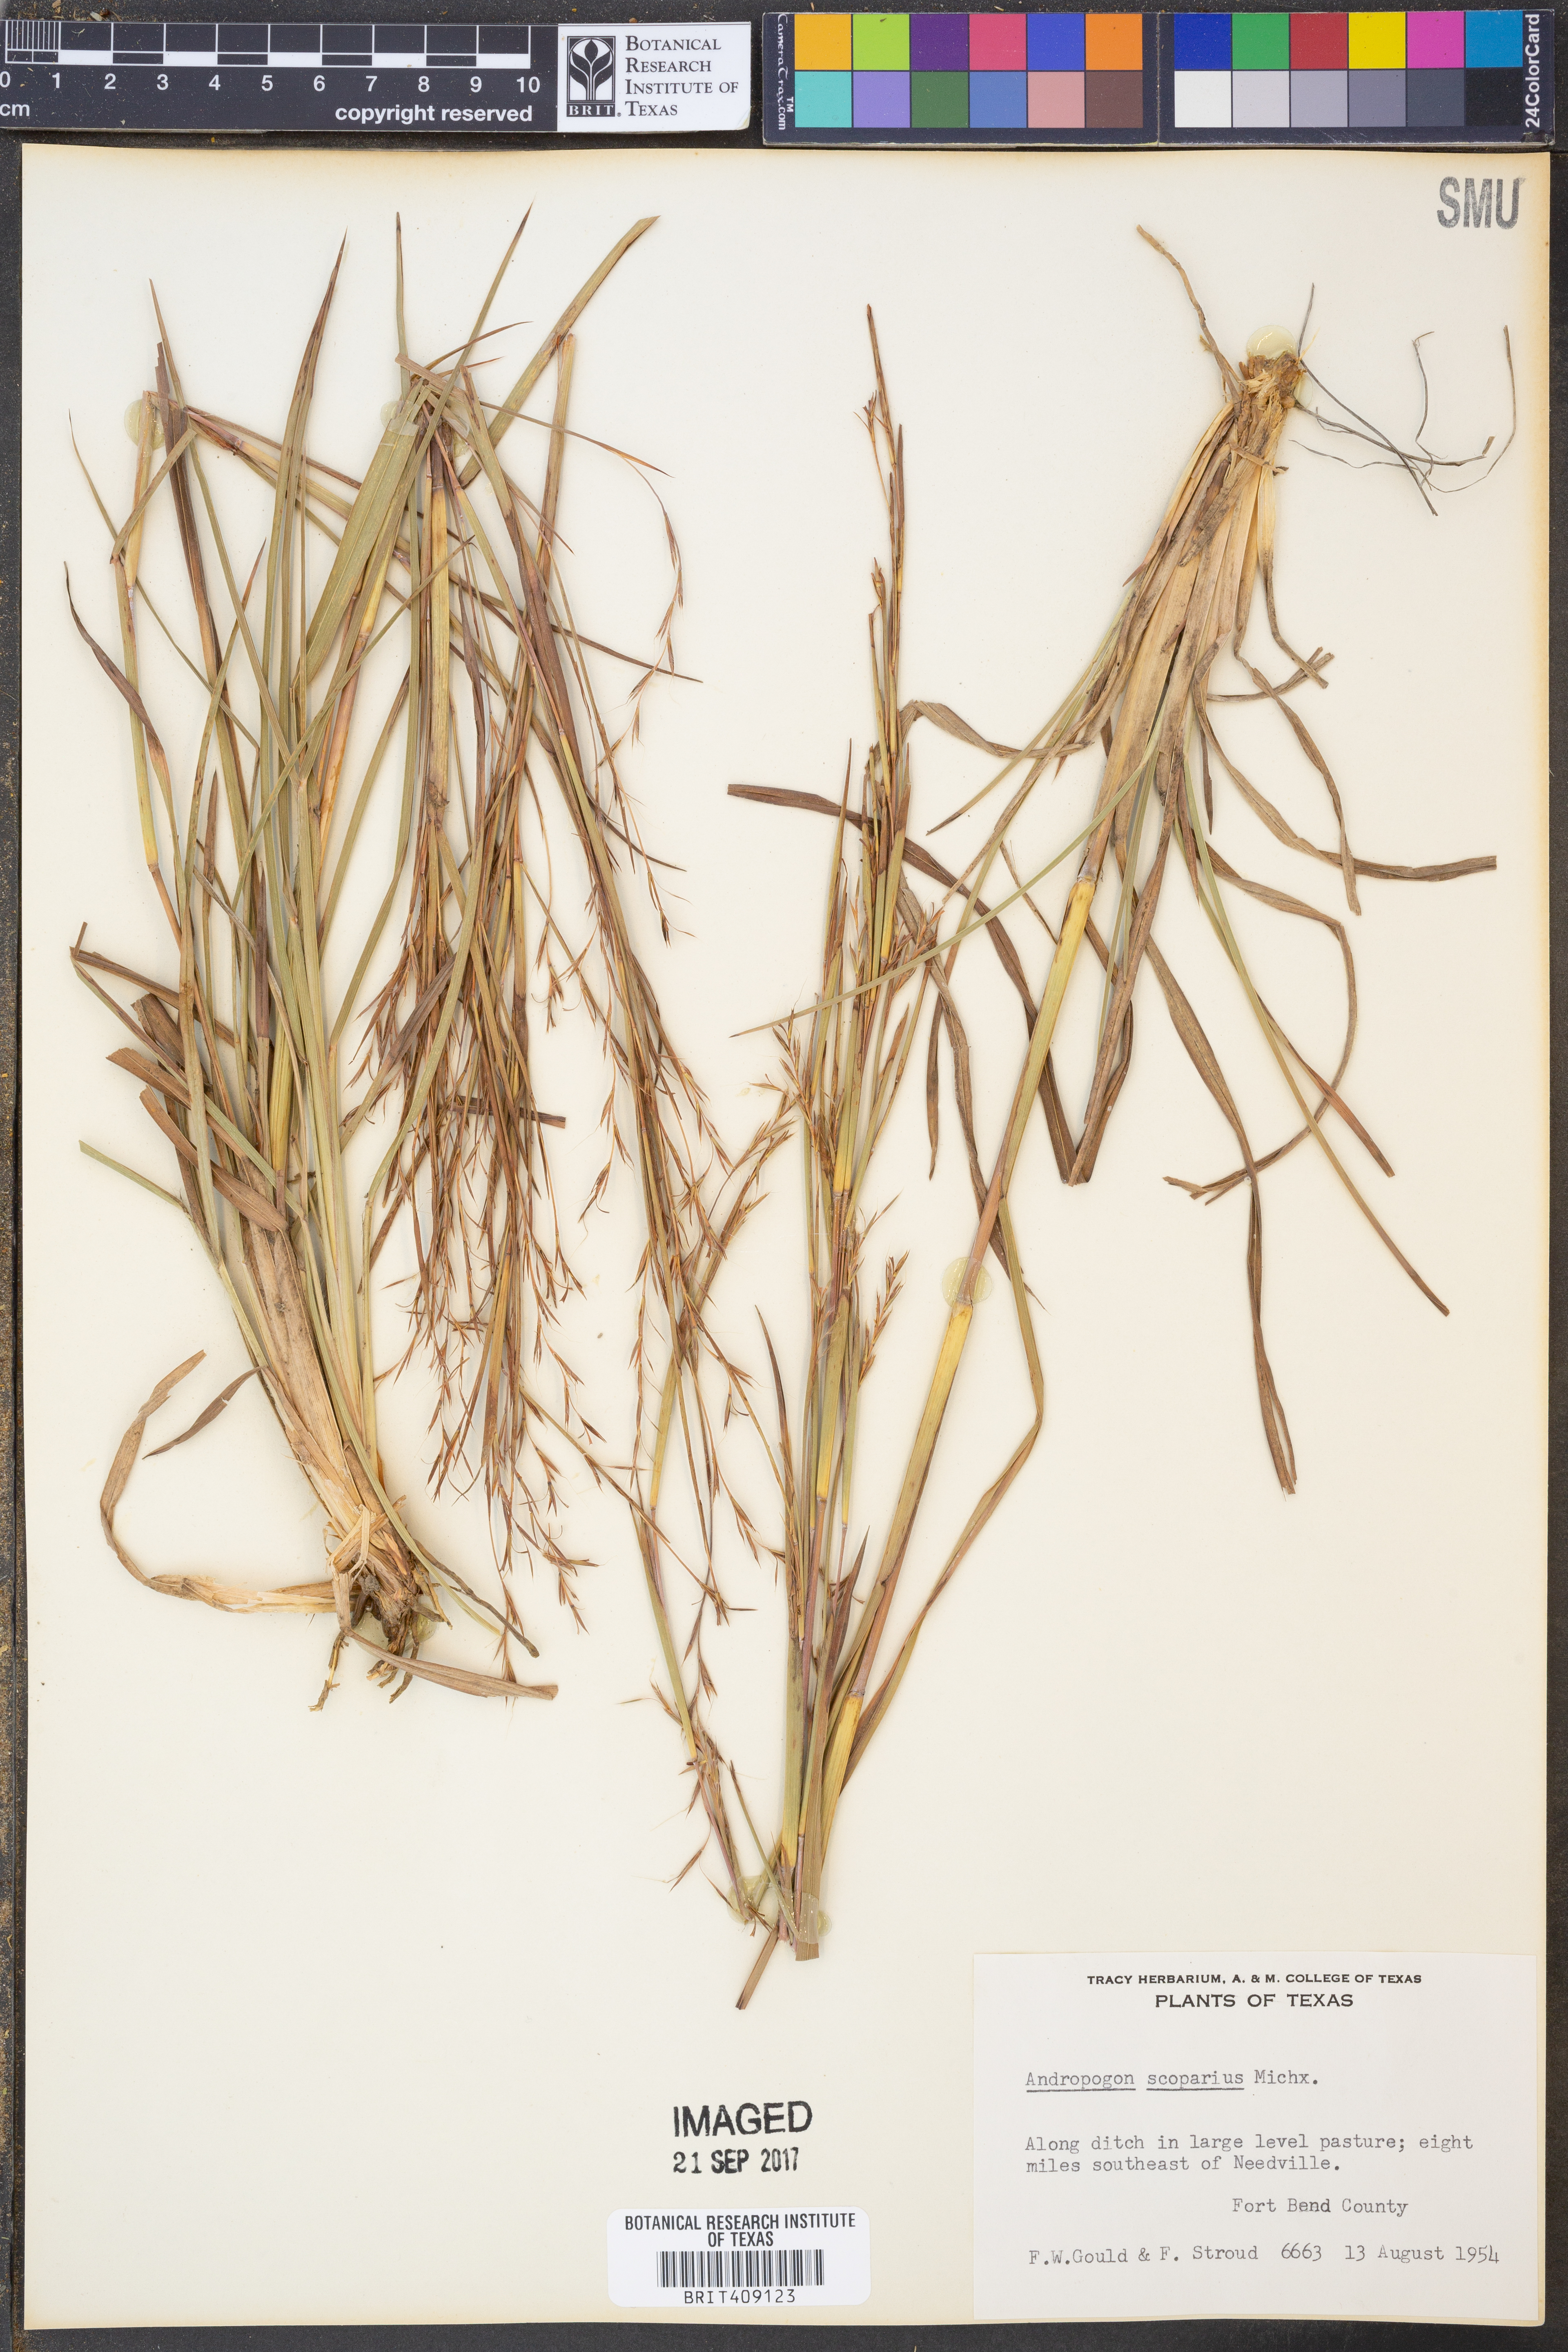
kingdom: Plantae
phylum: Tracheophyta
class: Liliopsida
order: Poales
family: Poaceae
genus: Schizachyrium
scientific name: Schizachyrium scoparium
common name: Little bluestem
